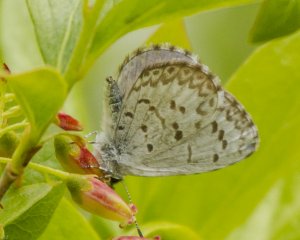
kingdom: Animalia
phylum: Arthropoda
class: Insecta
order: Lepidoptera
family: Lycaenidae
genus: Celastrina
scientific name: Celastrina lucia
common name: Northern Spring Azure
